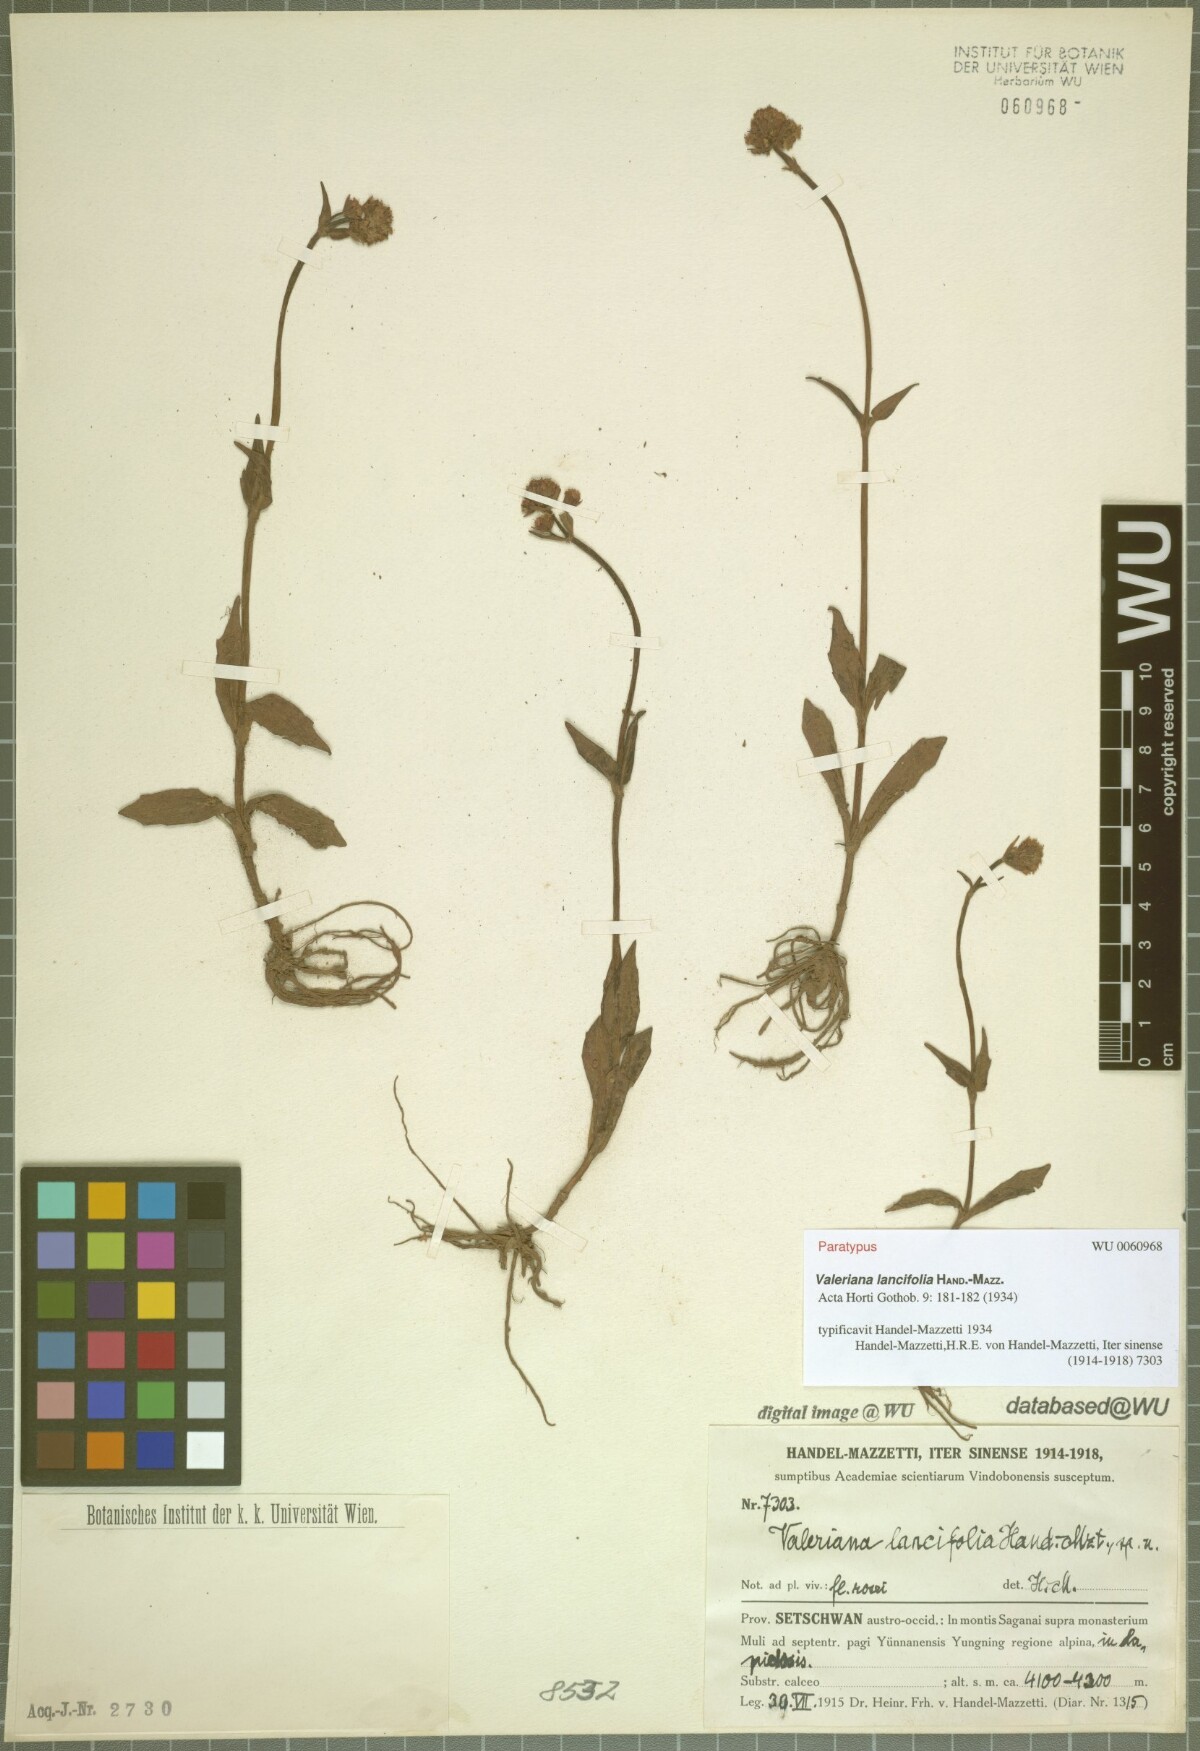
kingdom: Plantae
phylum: Tracheophyta
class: Magnoliopsida
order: Dipsacales
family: Caprifoliaceae
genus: Valeriana
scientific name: Valeriana lancifolia
